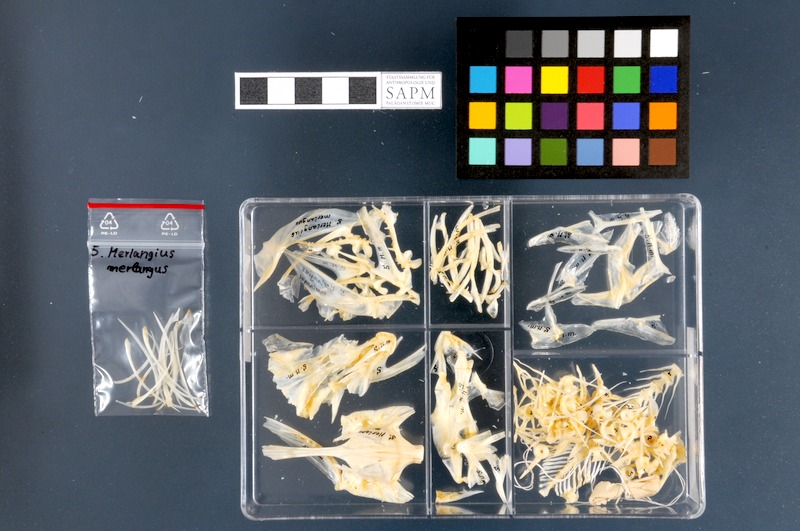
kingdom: Animalia
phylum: Chordata
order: Gadiformes
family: Gadidae
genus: Merlangius
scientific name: Merlangius merlangus
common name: Whiting
